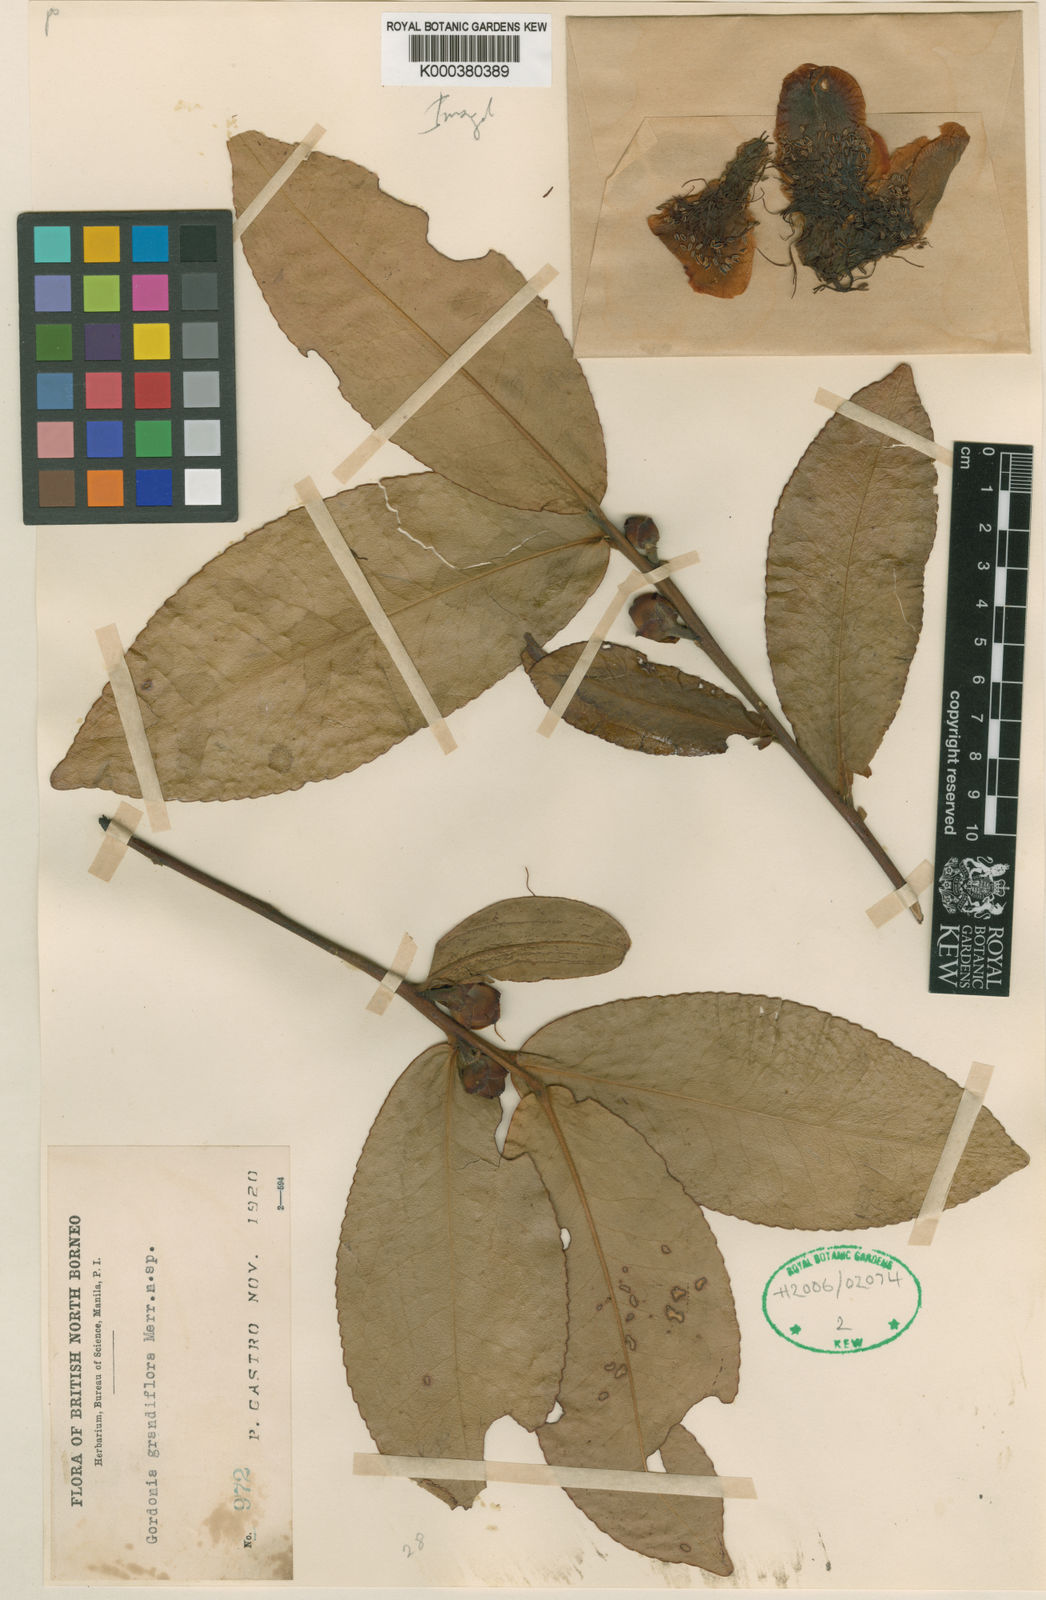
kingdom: Plantae
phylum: Tracheophyta
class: Magnoliopsida
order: Ericales
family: Theaceae
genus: Polyspora
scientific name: Polyspora grandiflora
